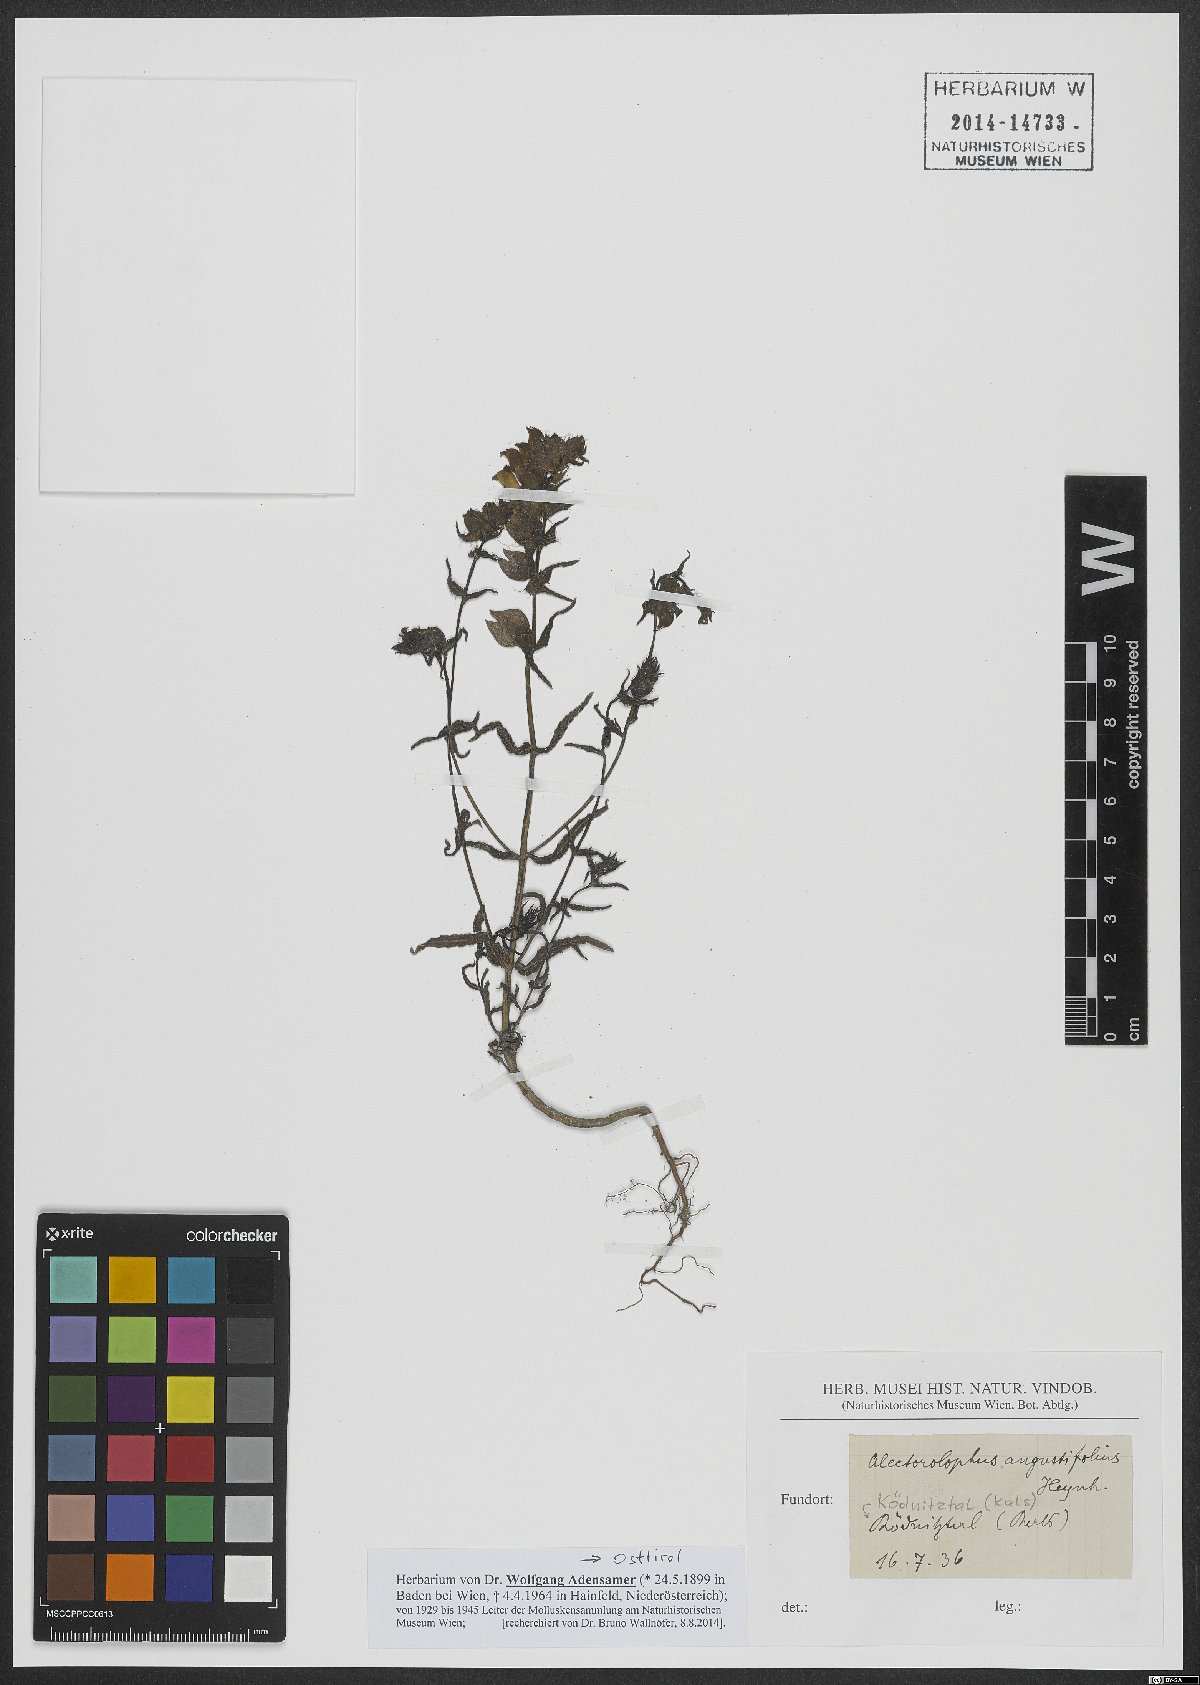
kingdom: Plantae
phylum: Tracheophyta
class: Magnoliopsida
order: Lamiales
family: Orobanchaceae
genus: Rhinanthus
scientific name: Rhinanthus glacialis
